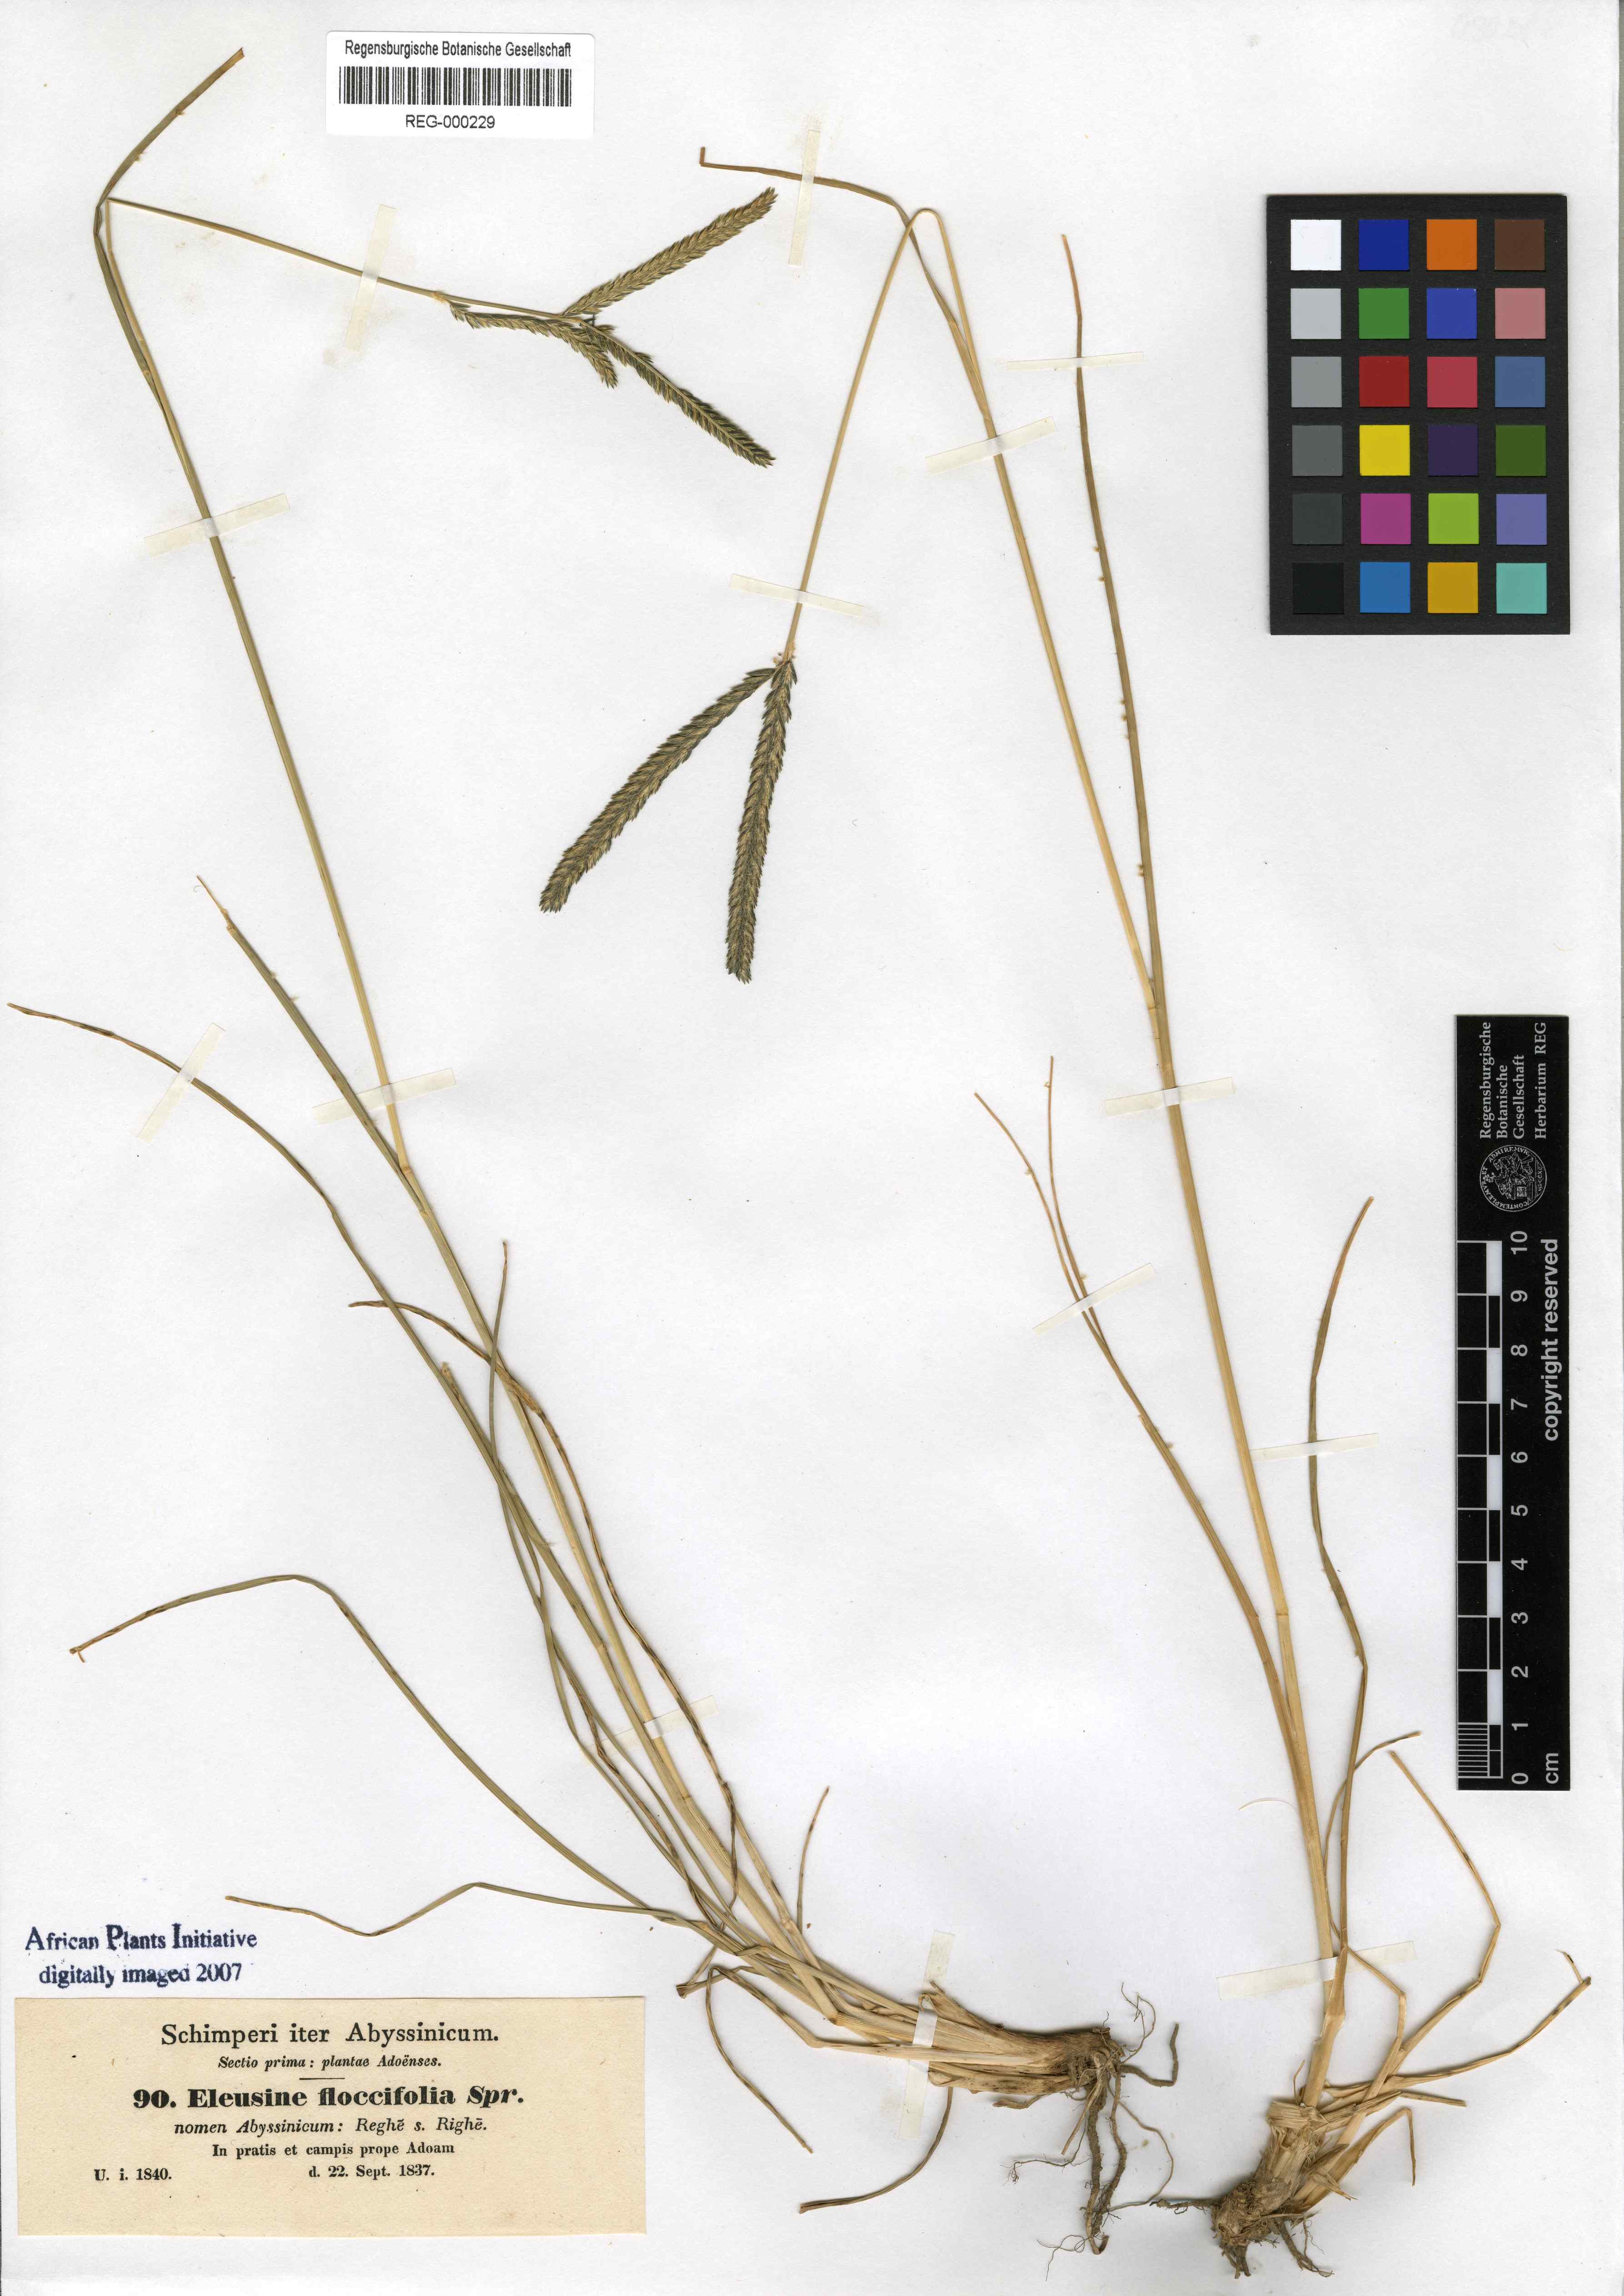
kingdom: Plantae
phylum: Tracheophyta
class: Liliopsida
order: Poales
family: Poaceae
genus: Eleusine
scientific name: Eleusine floccifolia
